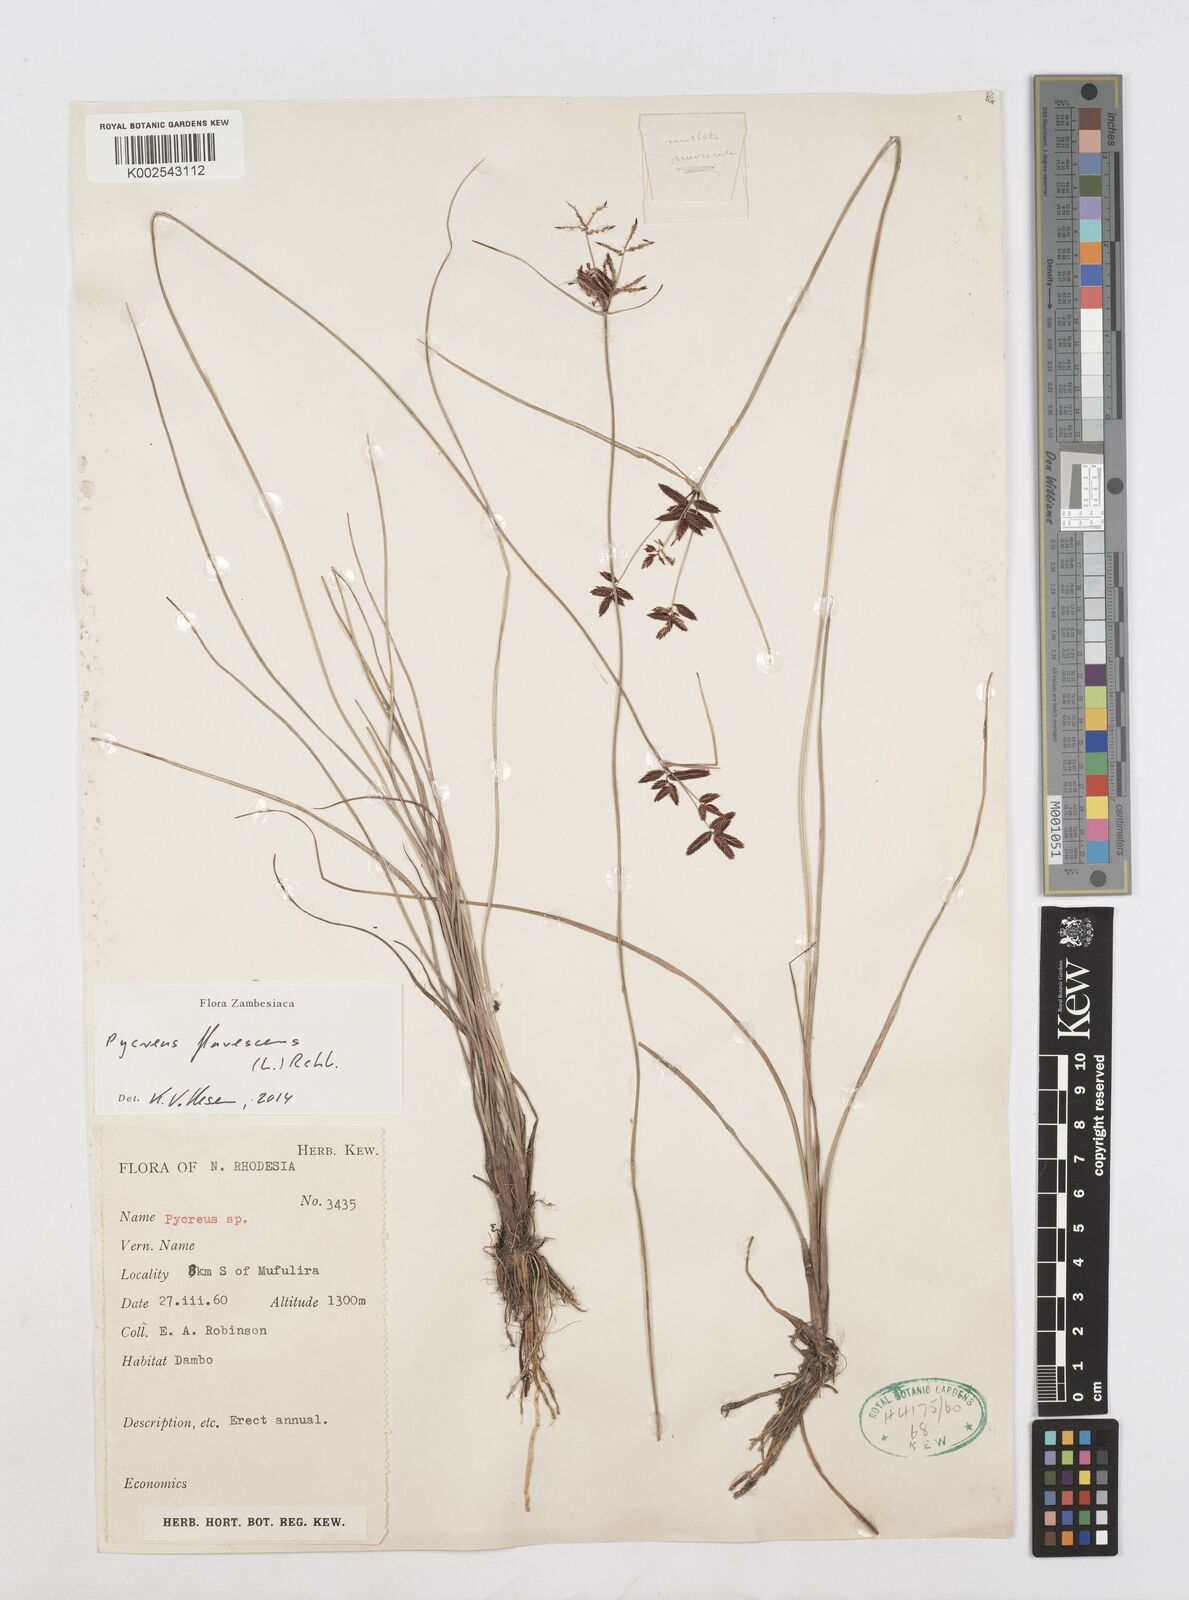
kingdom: Plantae
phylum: Tracheophyta
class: Liliopsida
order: Poales
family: Cyperaceae
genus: Cyperus
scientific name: Cyperus flavescens
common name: Yellow galingale
